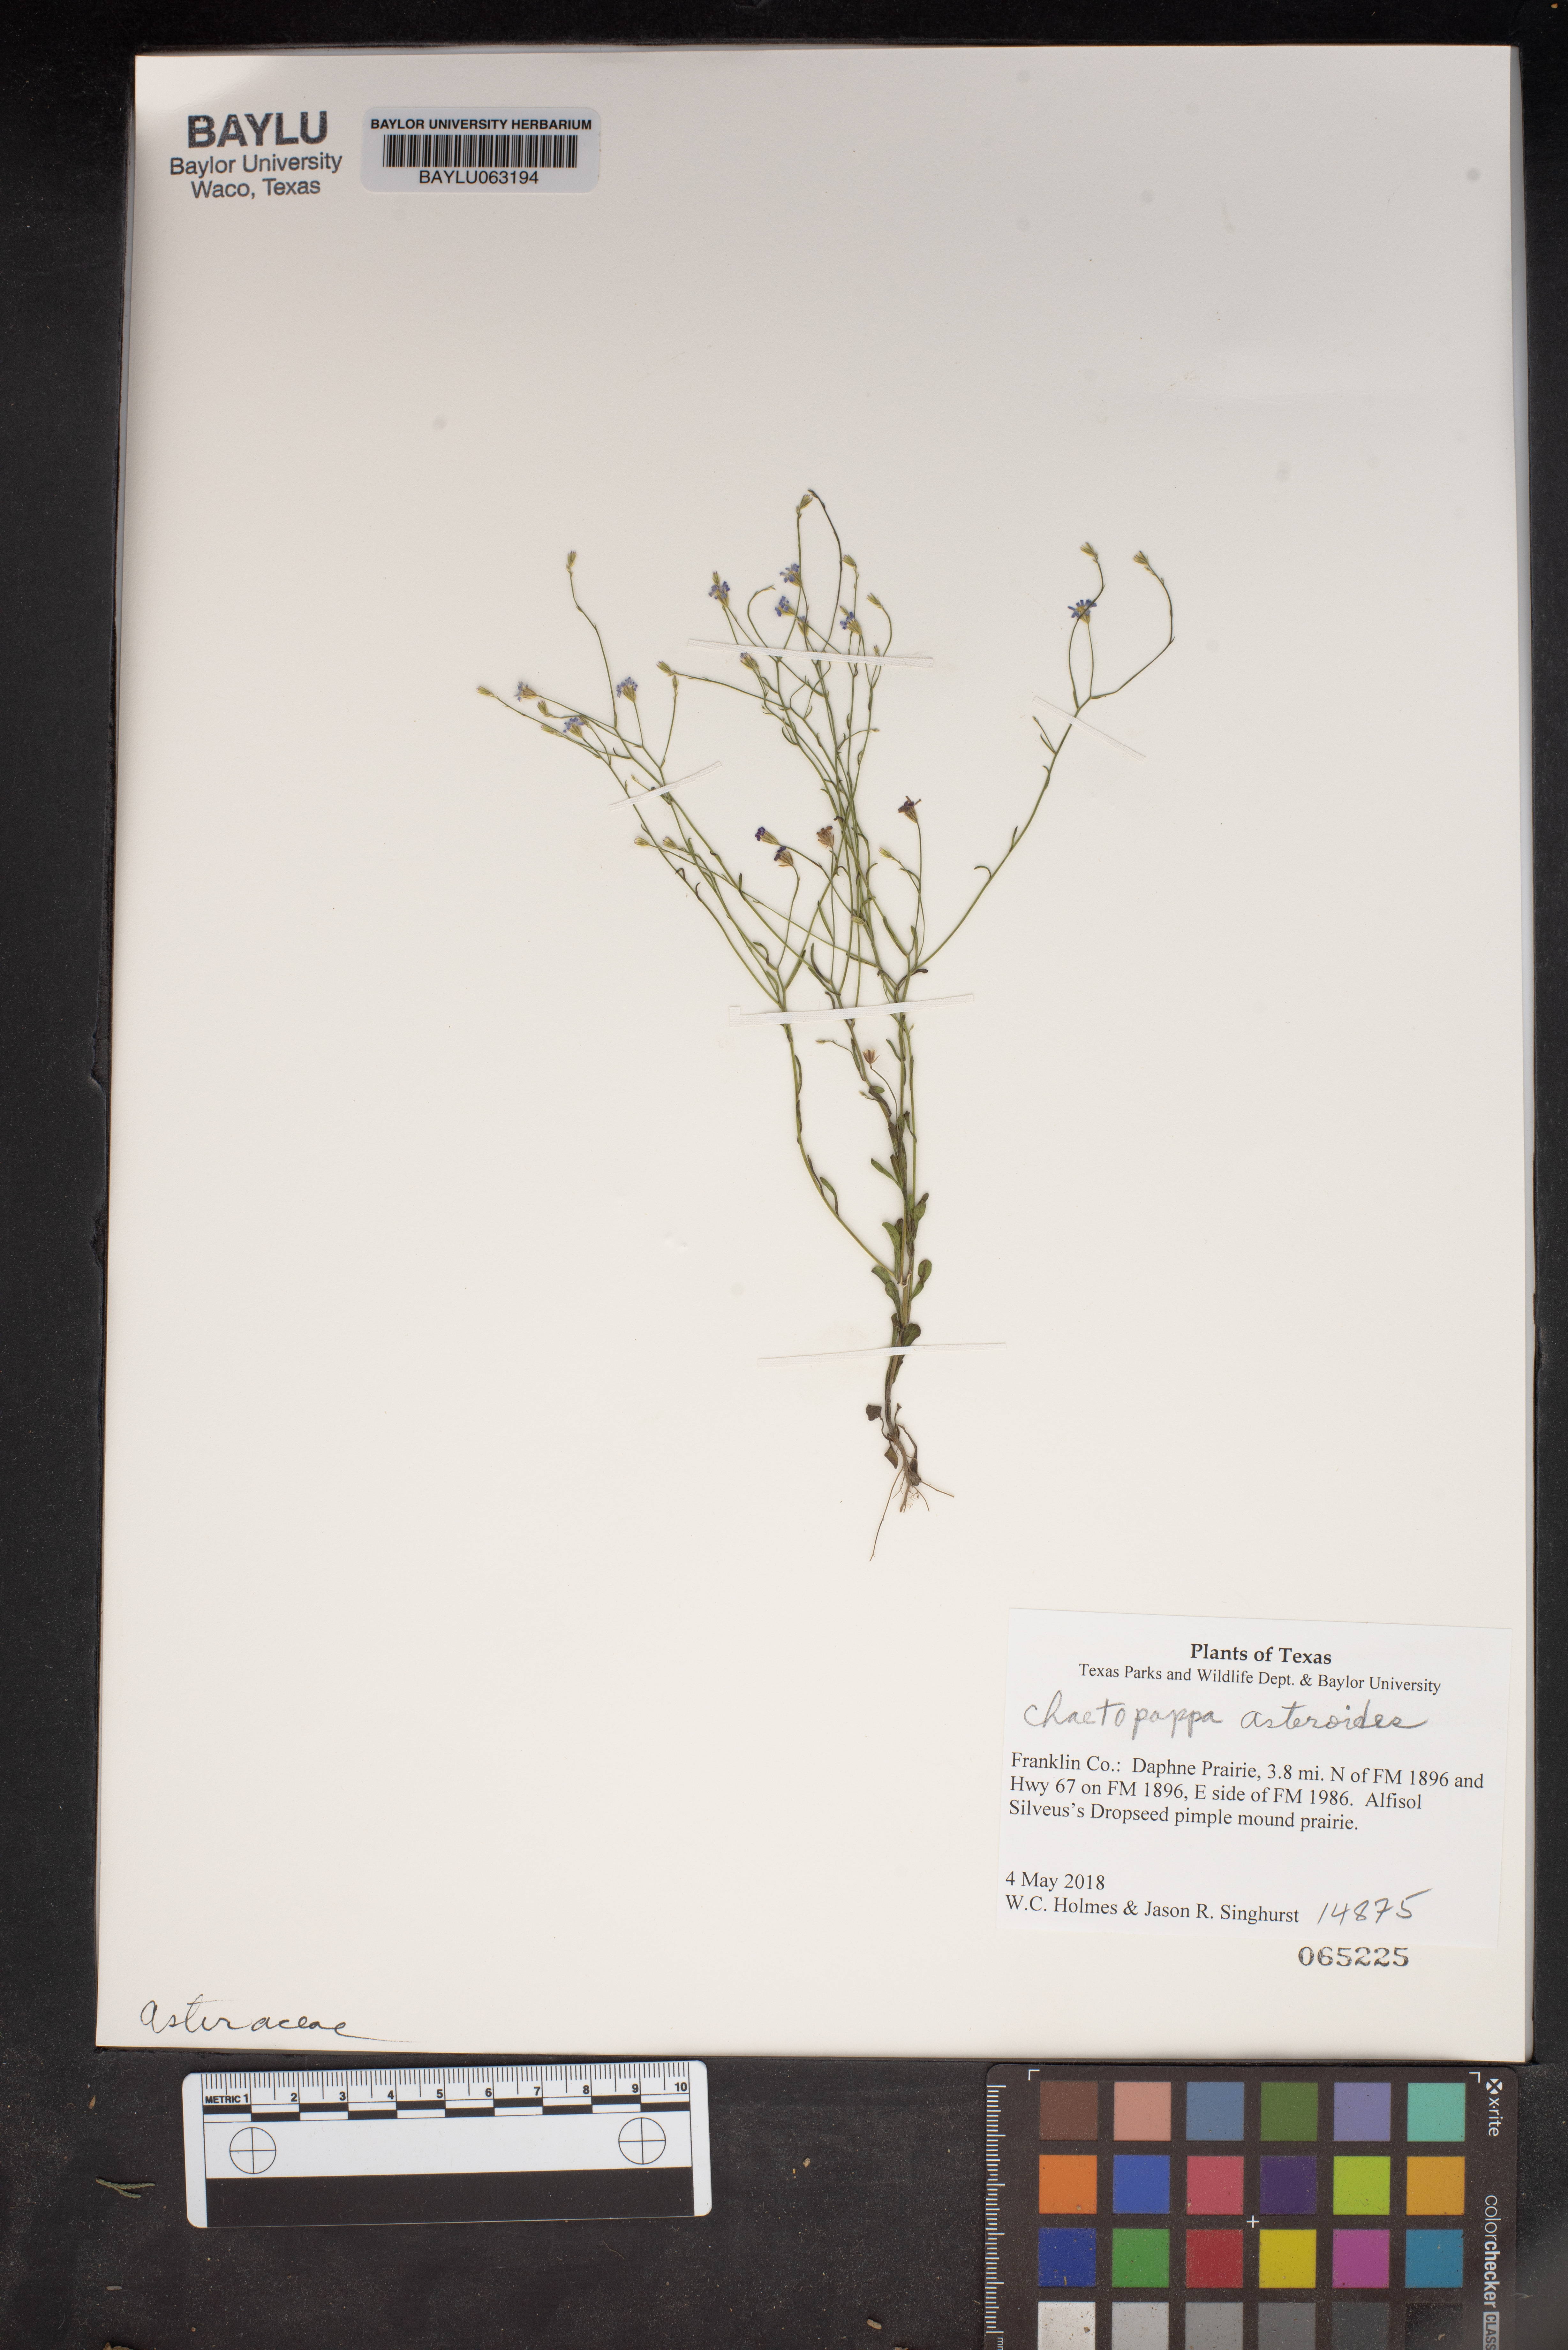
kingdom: Plantae
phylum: Tracheophyta
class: Magnoliopsida
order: Asterales
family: Asteraceae
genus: Chaetopappa
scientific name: Chaetopappa asteroides
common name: Tiny lazy daisy
